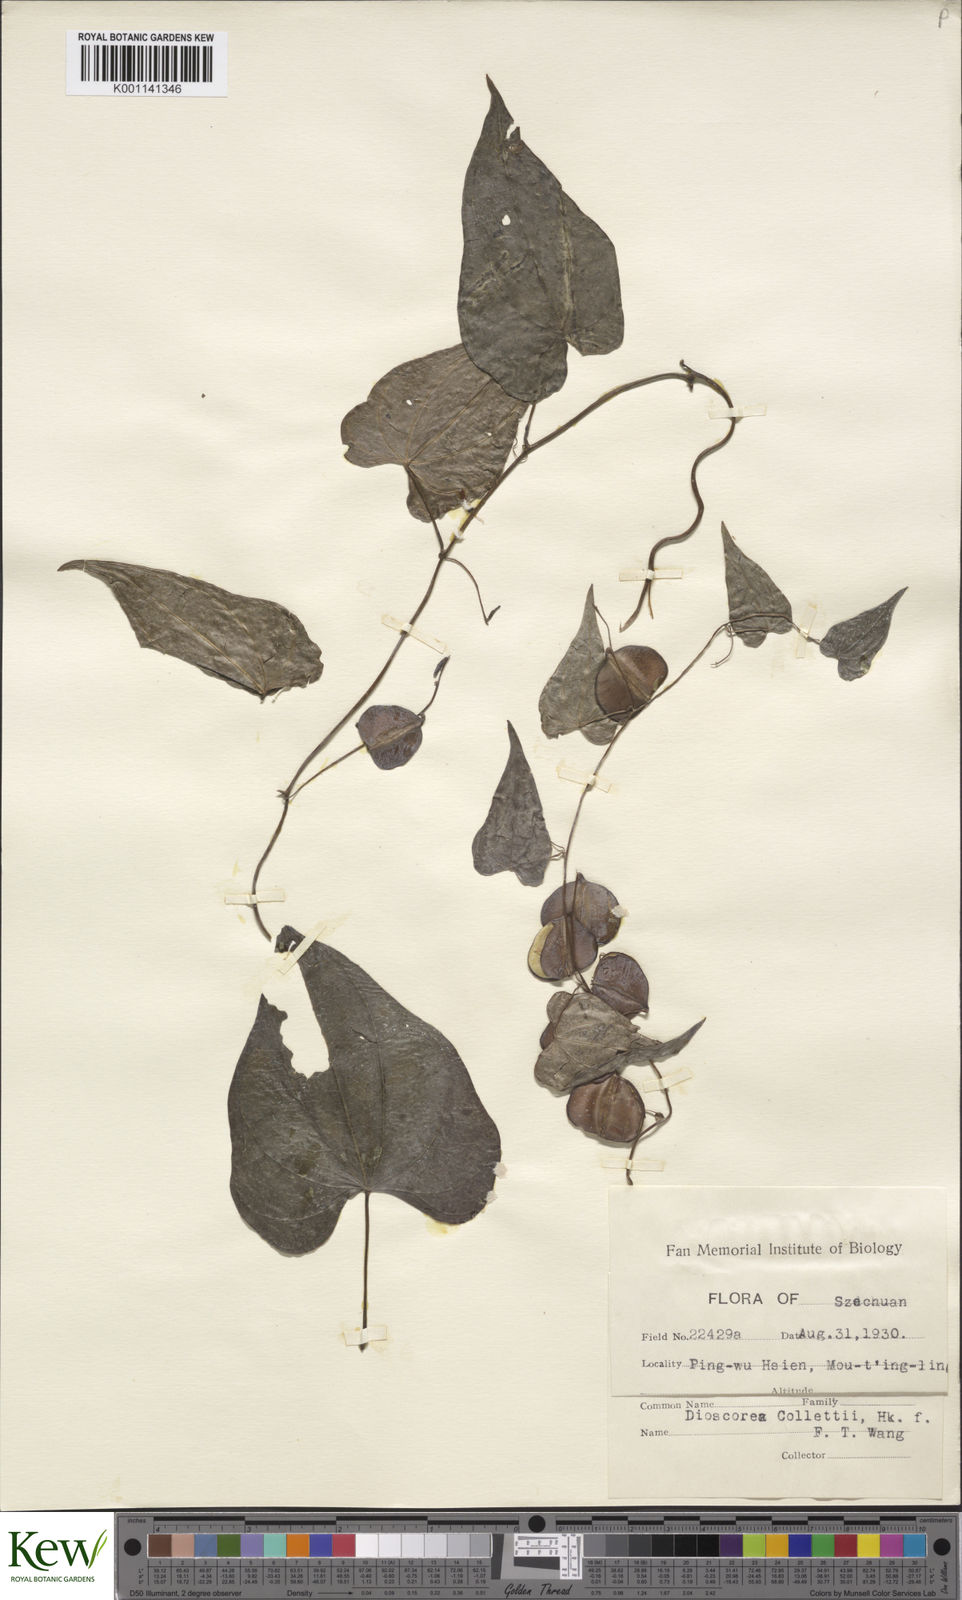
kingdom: Plantae
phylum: Tracheophyta
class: Liliopsida
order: Dioscoreales
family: Dioscoreaceae
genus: Dioscorea
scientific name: Dioscorea collettii
